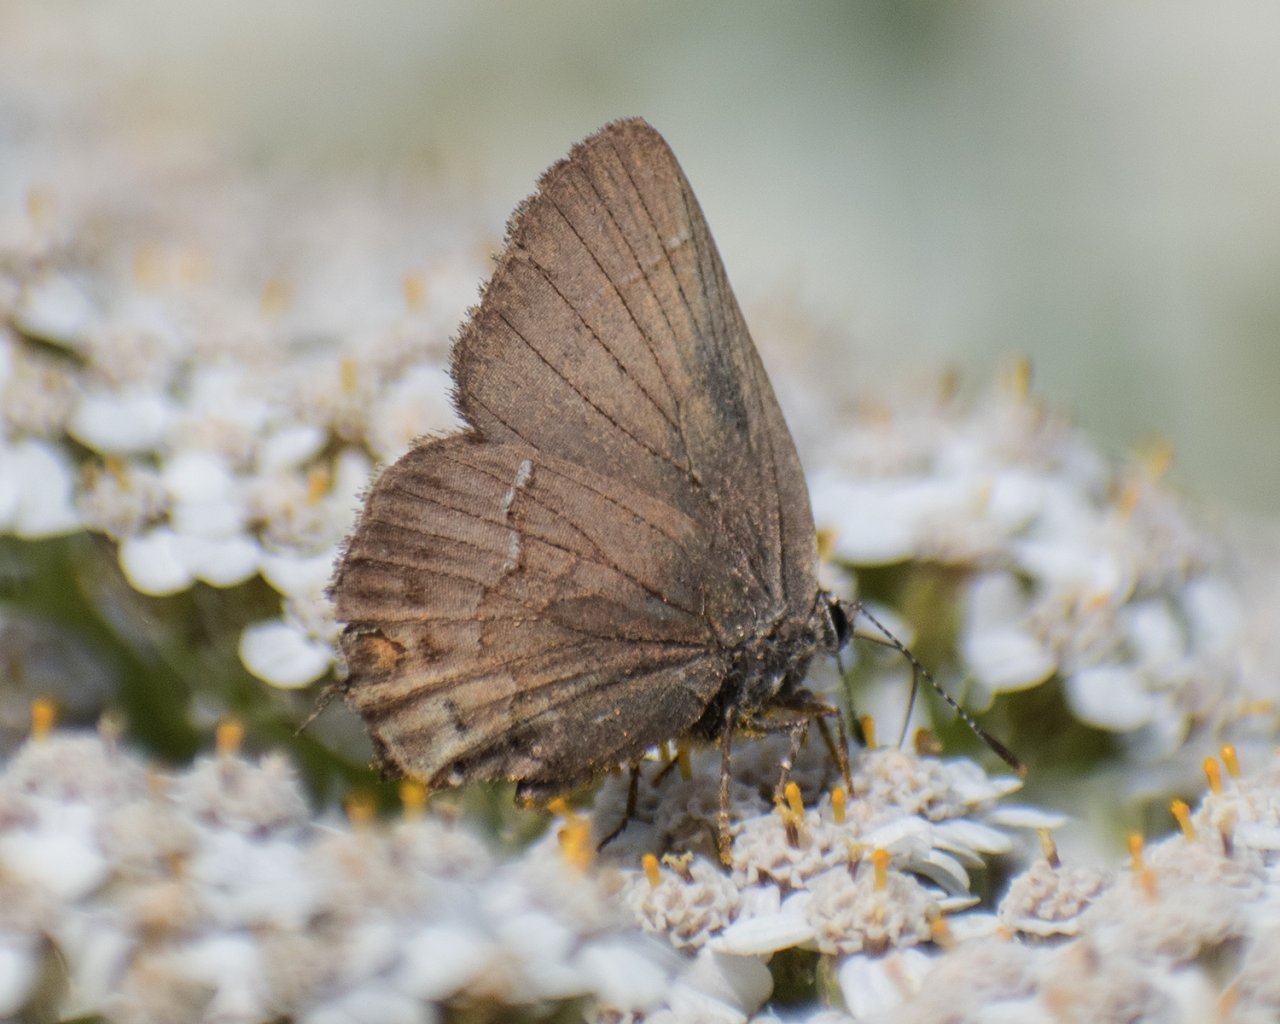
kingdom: Animalia
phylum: Arthropoda
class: Insecta
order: Lepidoptera
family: Lycaenidae
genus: Mitoura
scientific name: Mitoura nelsoni
